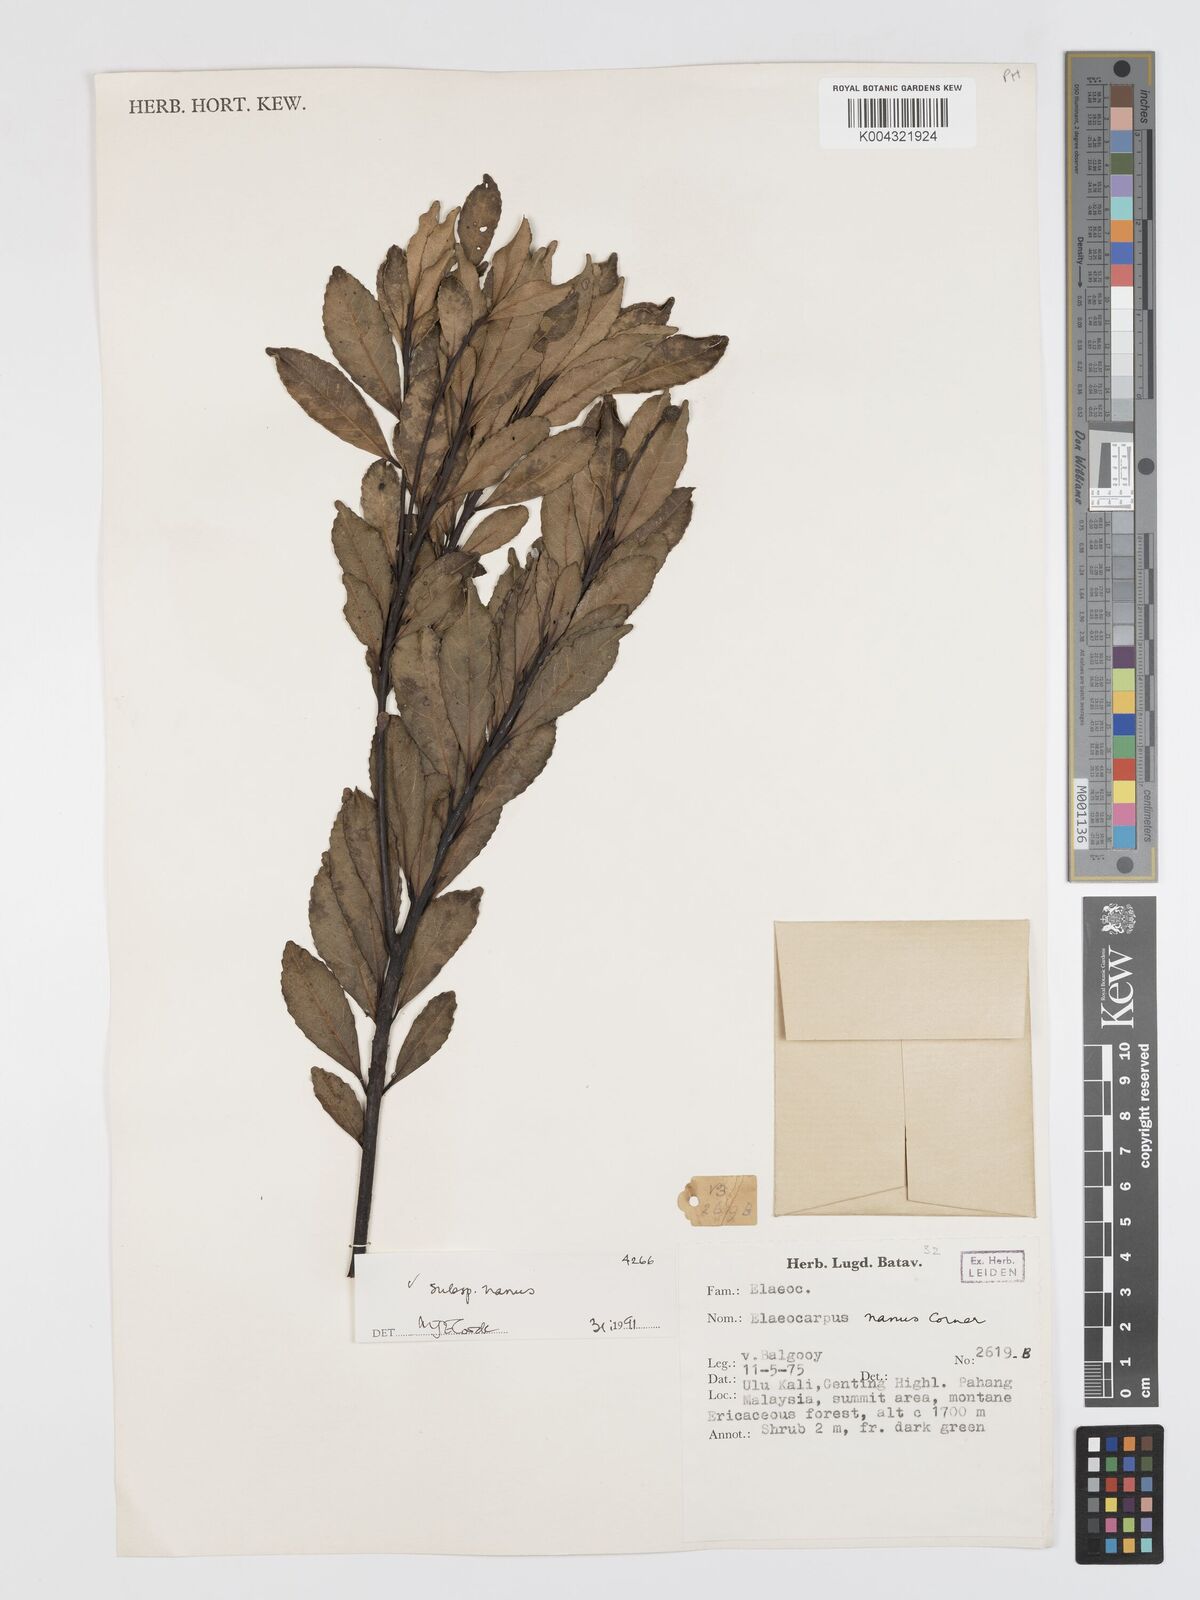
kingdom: Plantae
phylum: Tracheophyta
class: Magnoliopsida
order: Oxalidales
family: Elaeocarpaceae
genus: Elaeocarpus
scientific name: Elaeocarpus nanus
